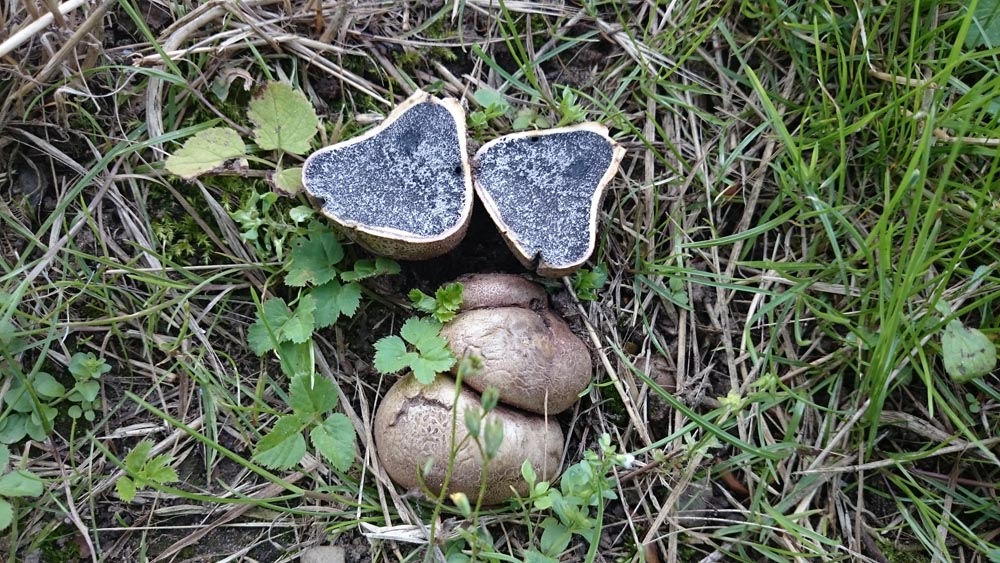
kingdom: Fungi
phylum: Basidiomycota
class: Agaricomycetes
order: Boletales
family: Sclerodermataceae
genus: Scleroderma
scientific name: Scleroderma bovista
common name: bovist-bruskbold
